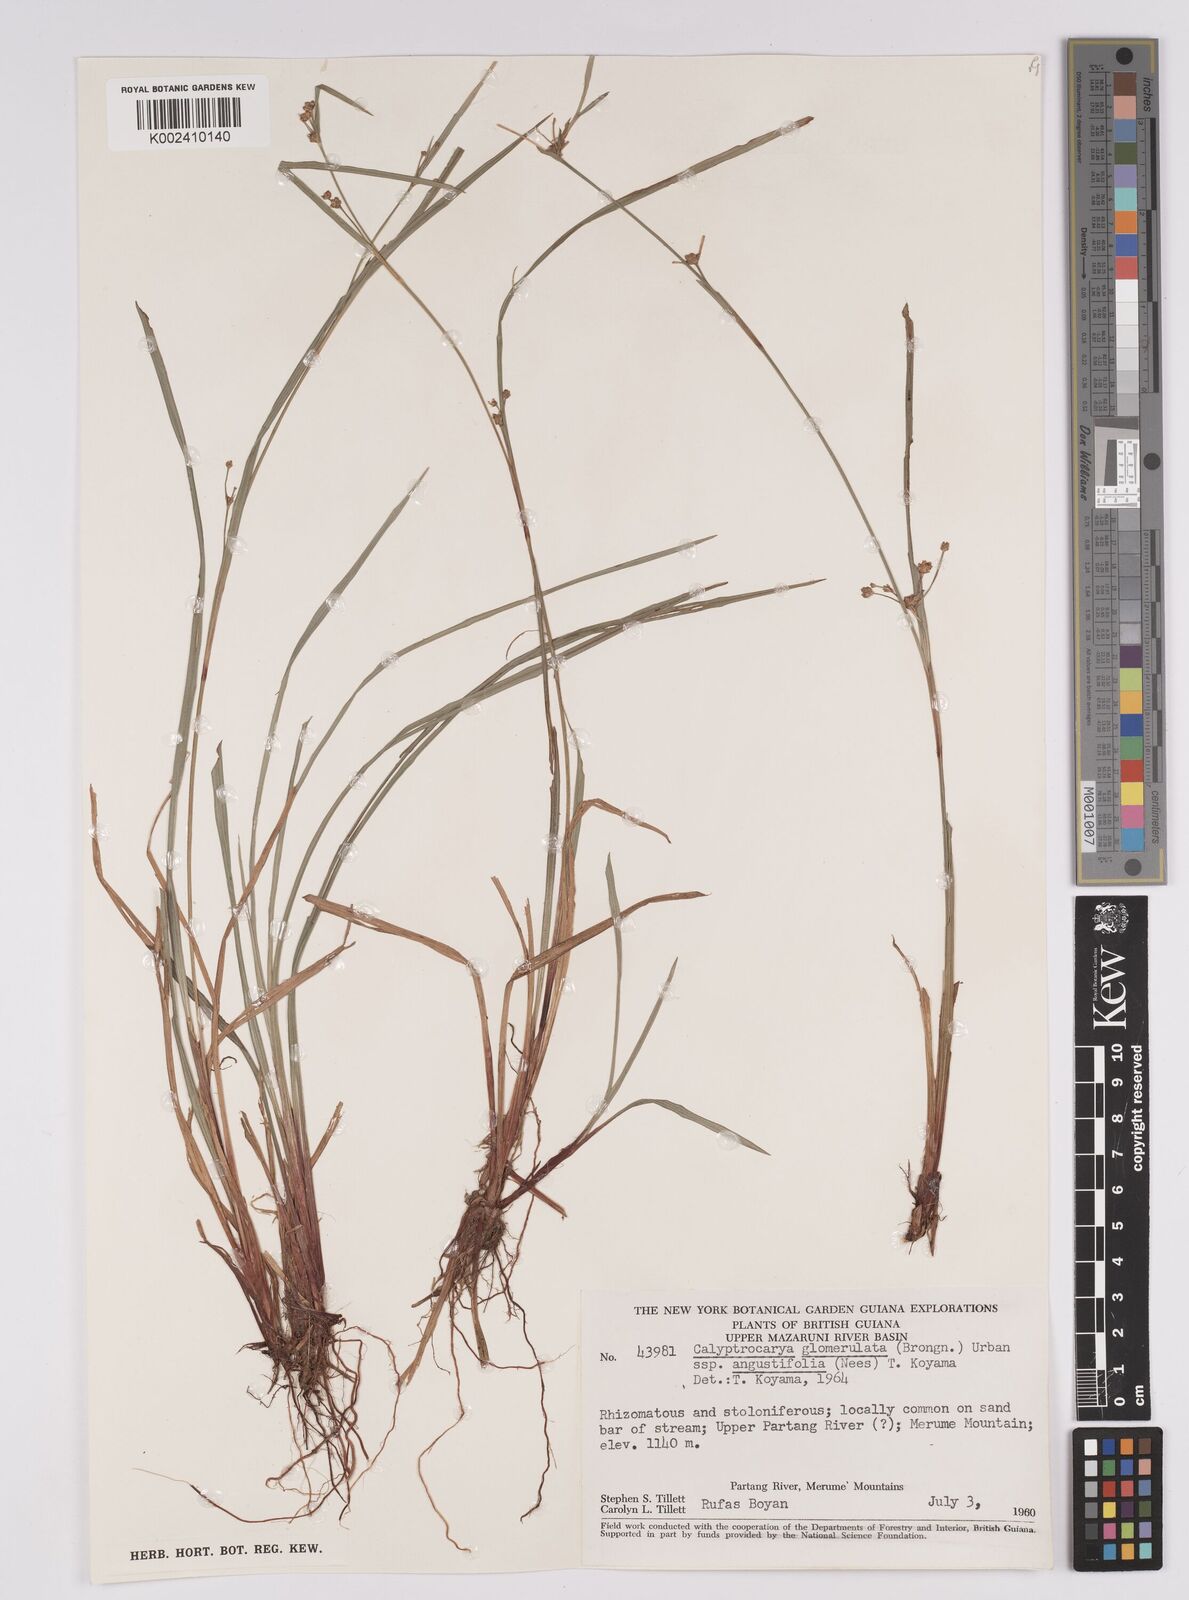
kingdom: Plantae
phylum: Tracheophyta
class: Liliopsida
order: Poales
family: Cyperaceae
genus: Calyptrocarya
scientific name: Calyptrocarya glomerulata
